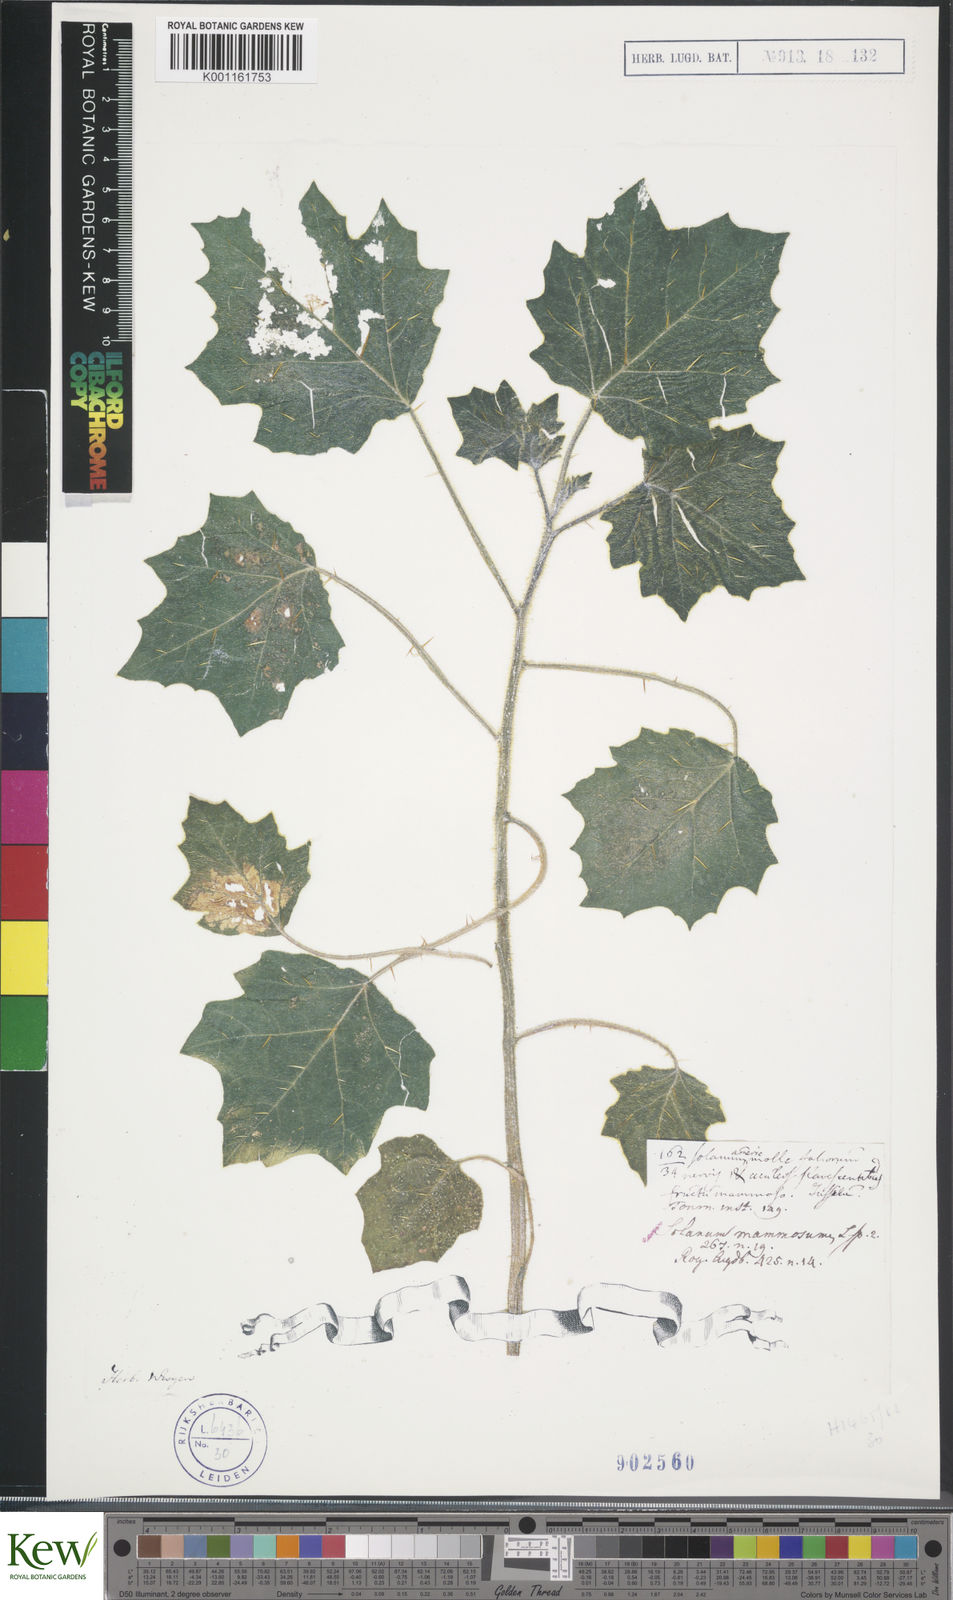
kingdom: Plantae
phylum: Tracheophyta
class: Magnoliopsida
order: Solanales
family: Solanaceae
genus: Solanum
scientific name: Solanum mammosum
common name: Nipple fruit
